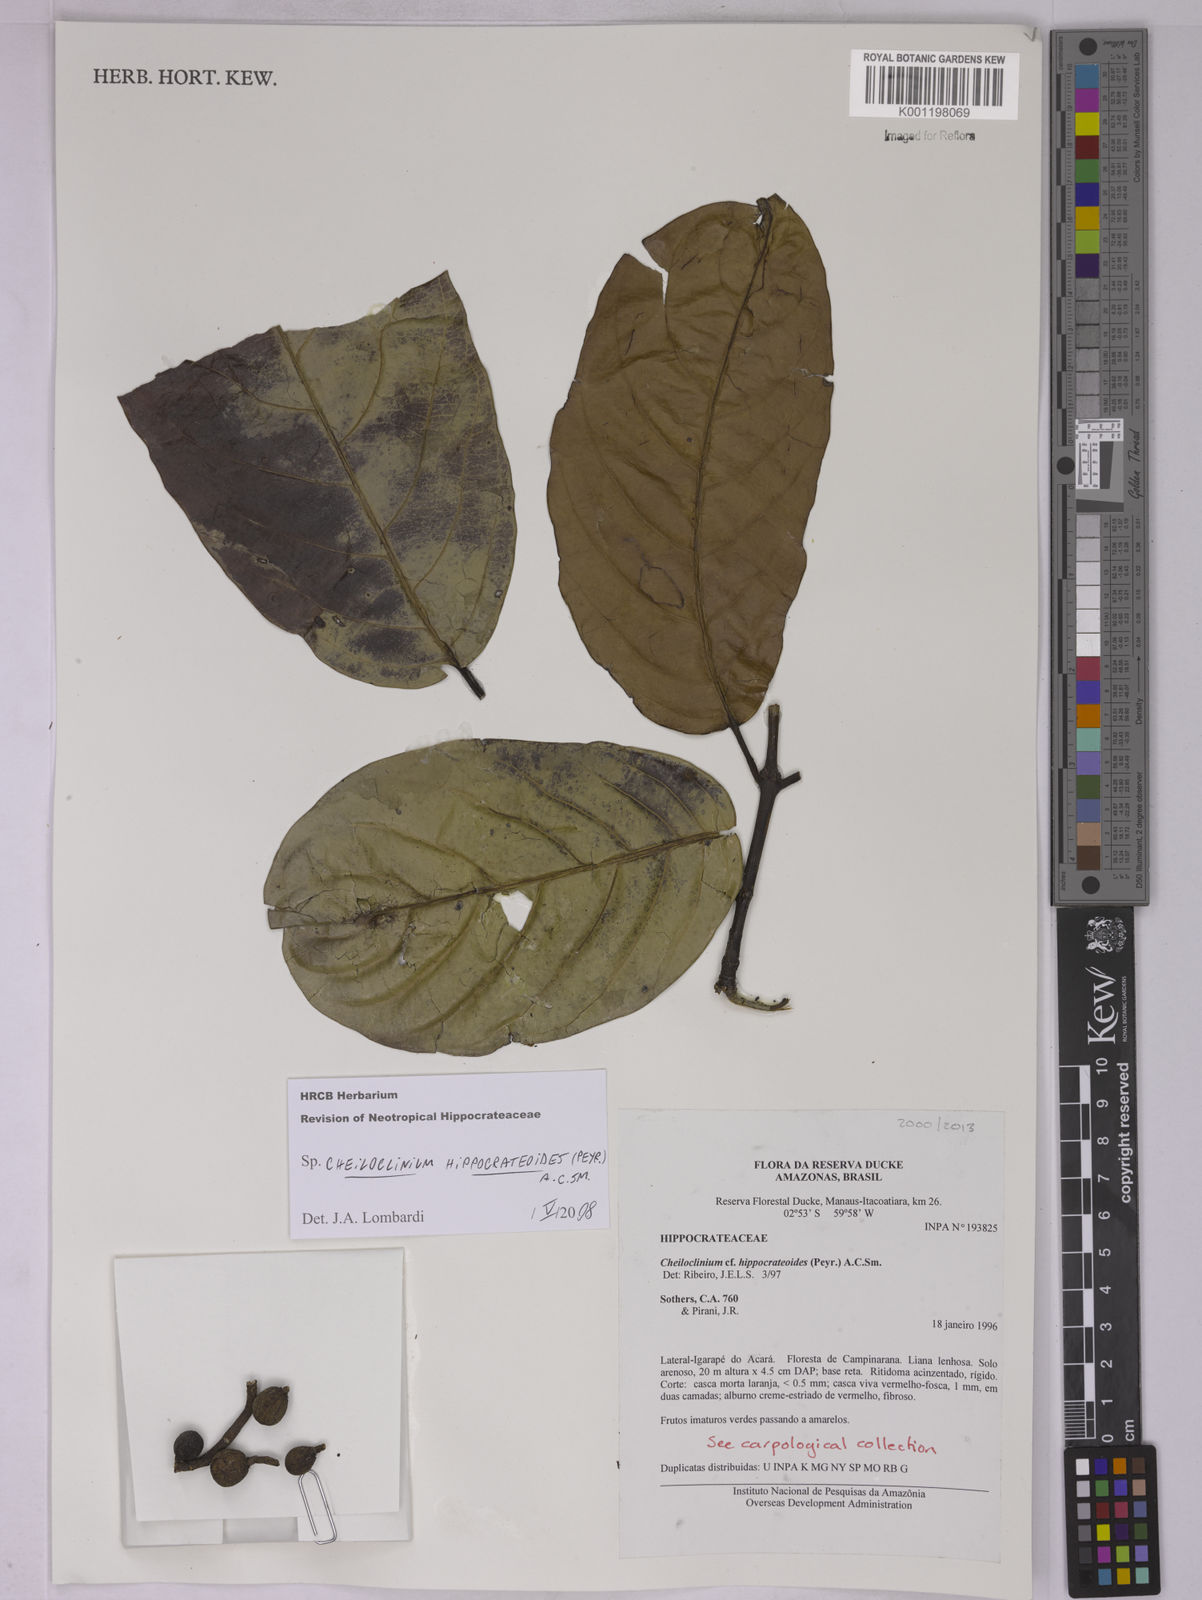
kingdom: Plantae
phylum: Tracheophyta
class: Magnoliopsida
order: Celastrales
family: Celastraceae
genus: Cheiloclinium
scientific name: Cheiloclinium hippocrateoides
